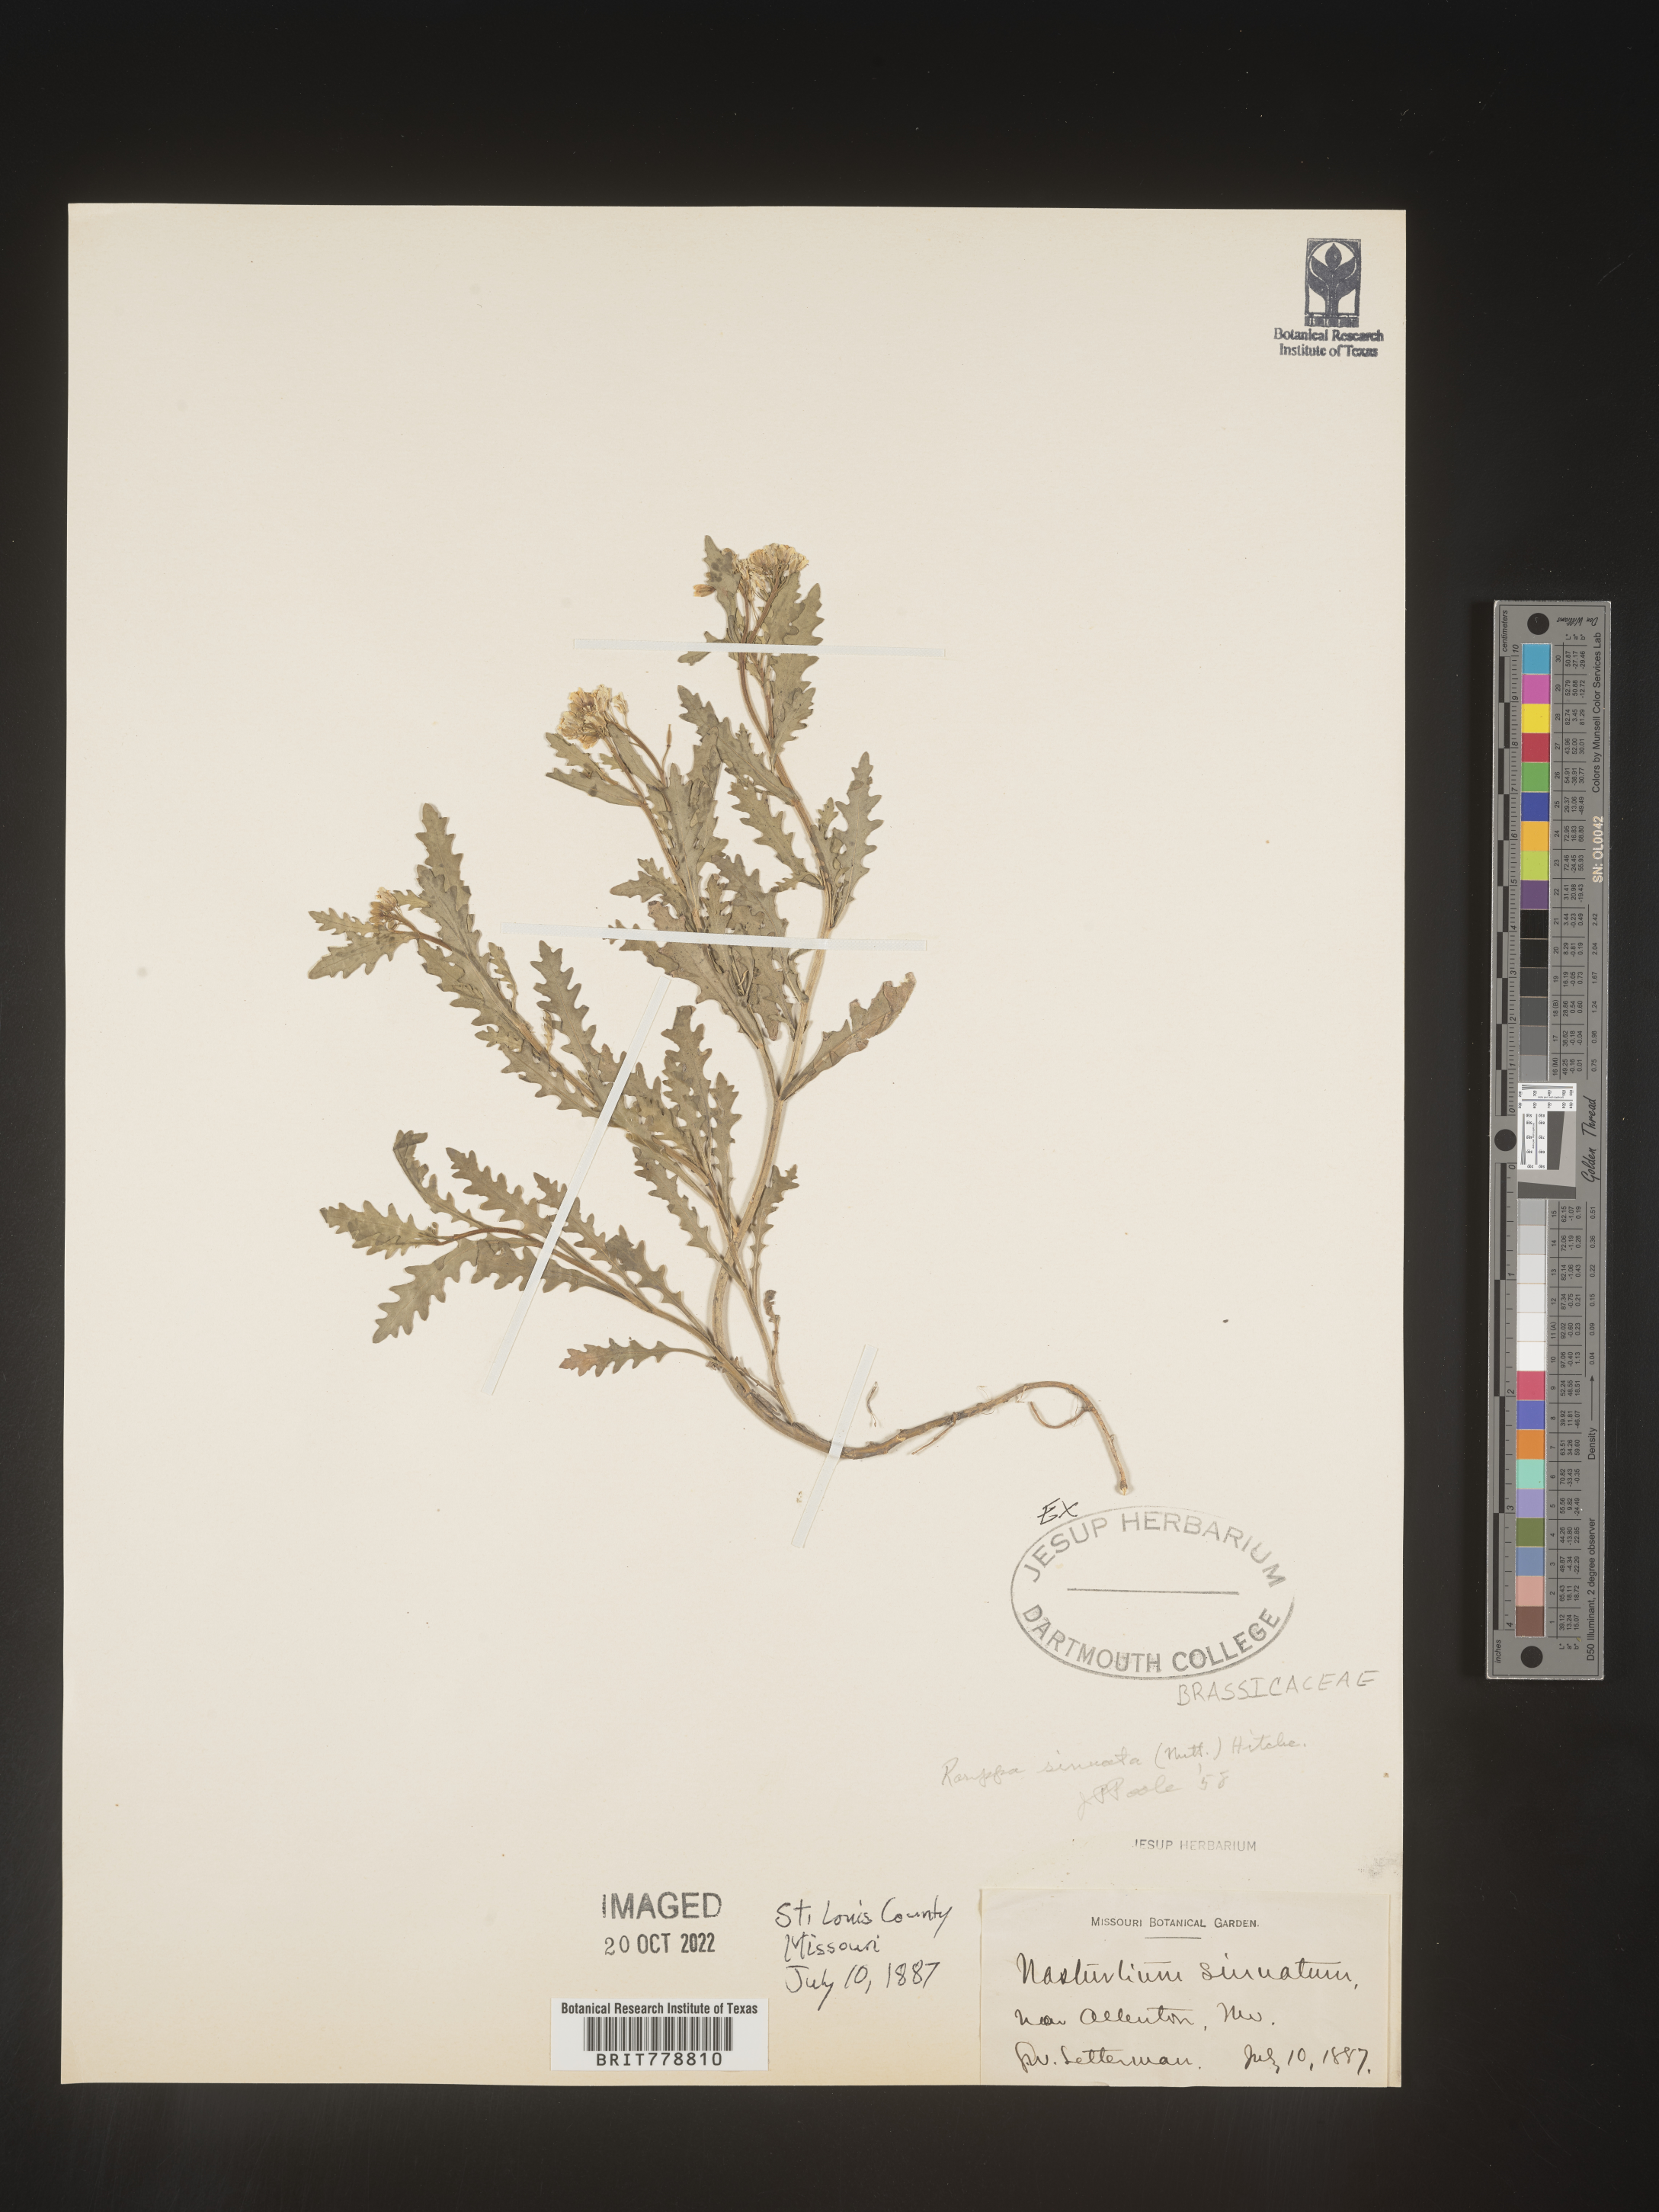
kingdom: Plantae
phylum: Tracheophyta
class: Magnoliopsida
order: Brassicales
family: Brassicaceae
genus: Rorippa
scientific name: Rorippa sinuata
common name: Spread yellow cress
